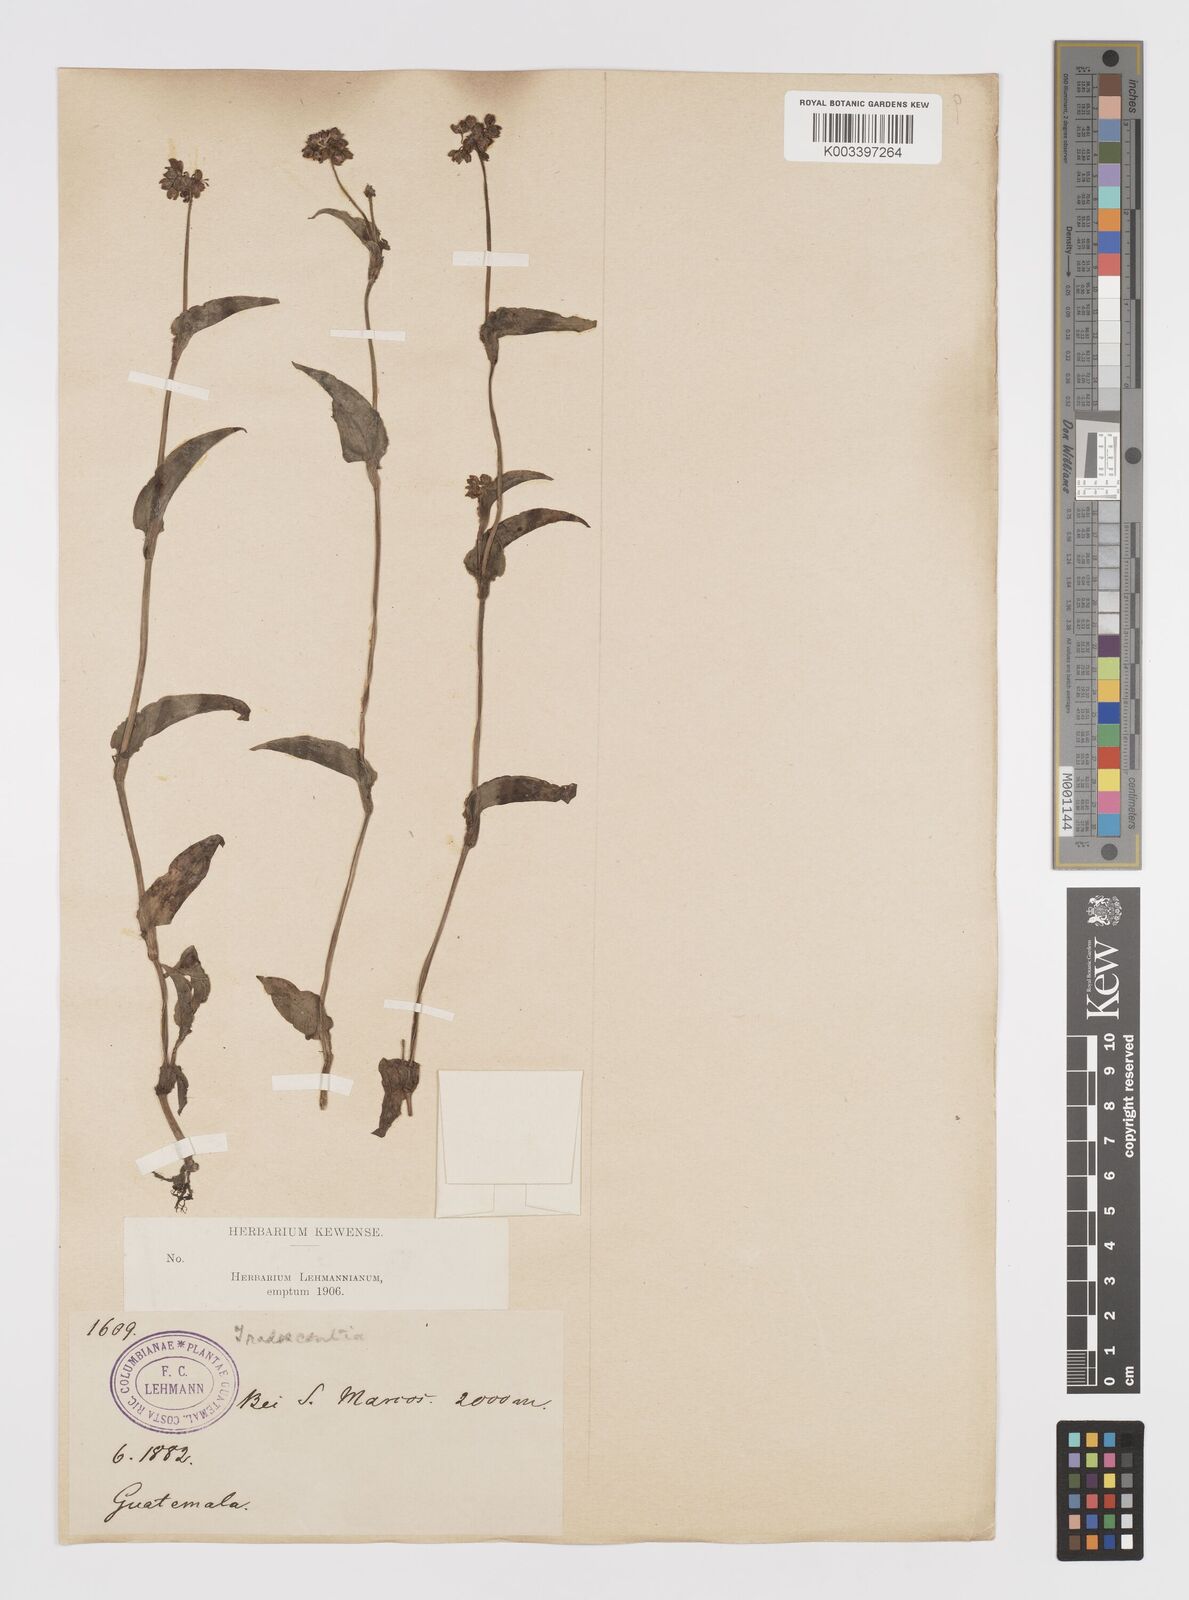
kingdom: Plantae
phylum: Tracheophyta
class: Liliopsida
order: Commelinales
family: Commelinaceae
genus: Callisia
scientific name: Callisia purpurascens
